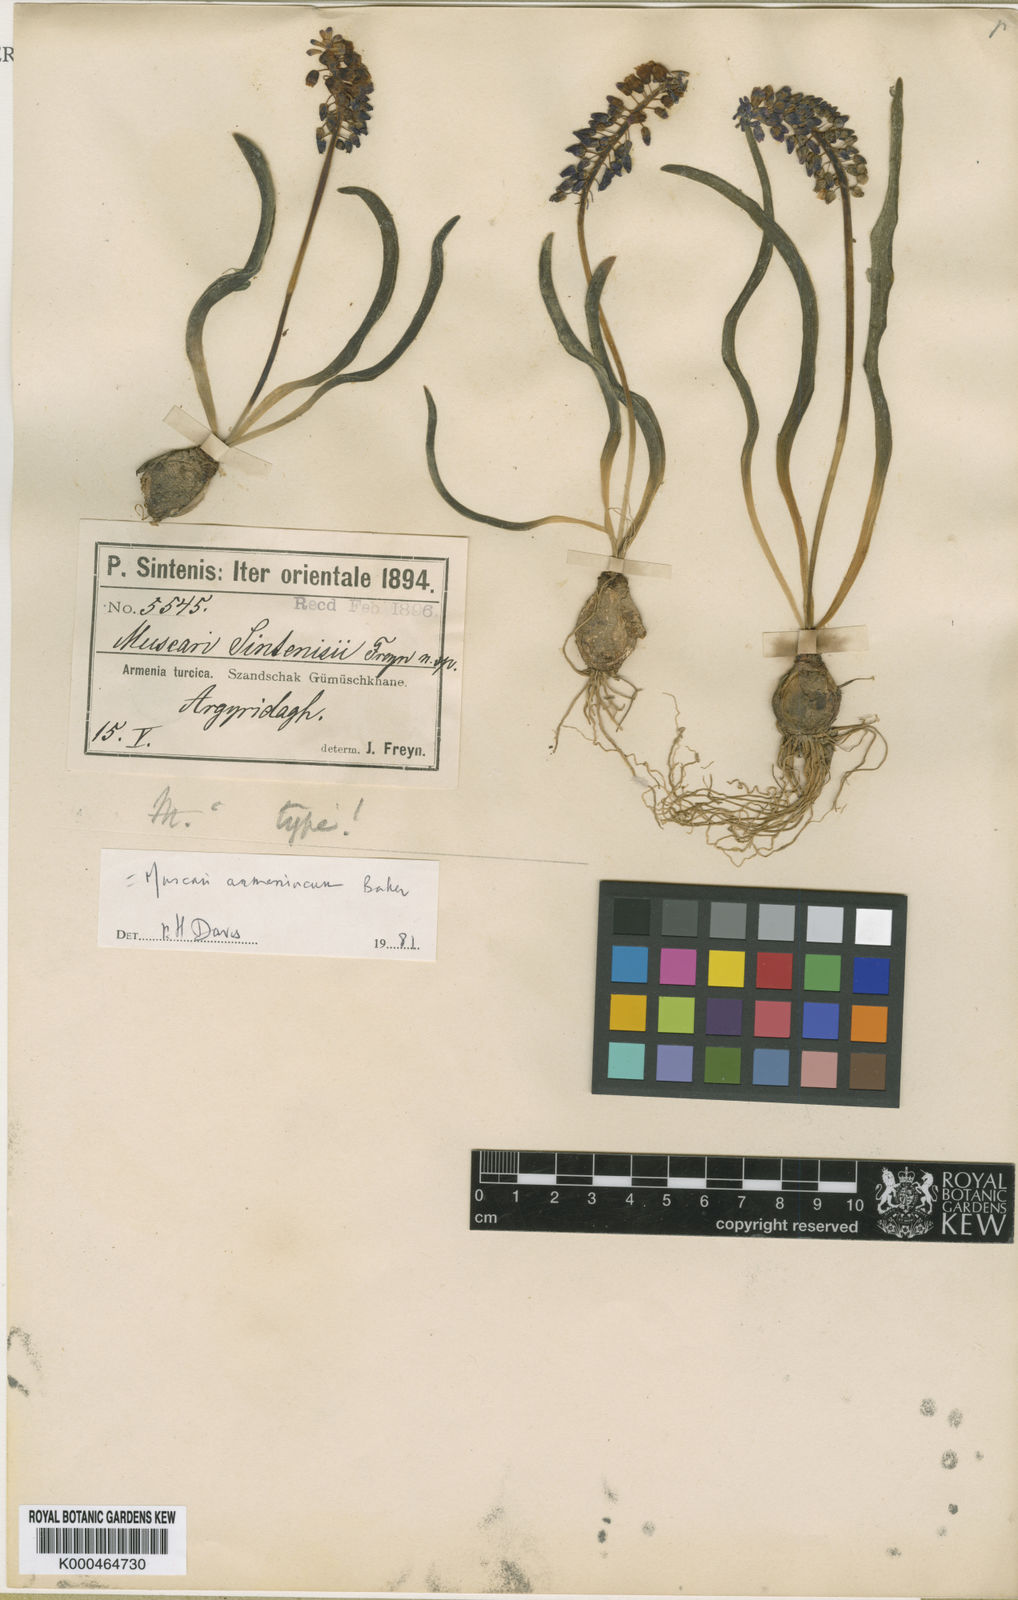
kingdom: Plantae
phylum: Tracheophyta
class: Liliopsida
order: Asparagales
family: Asparagaceae
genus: Muscari
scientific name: Muscari
